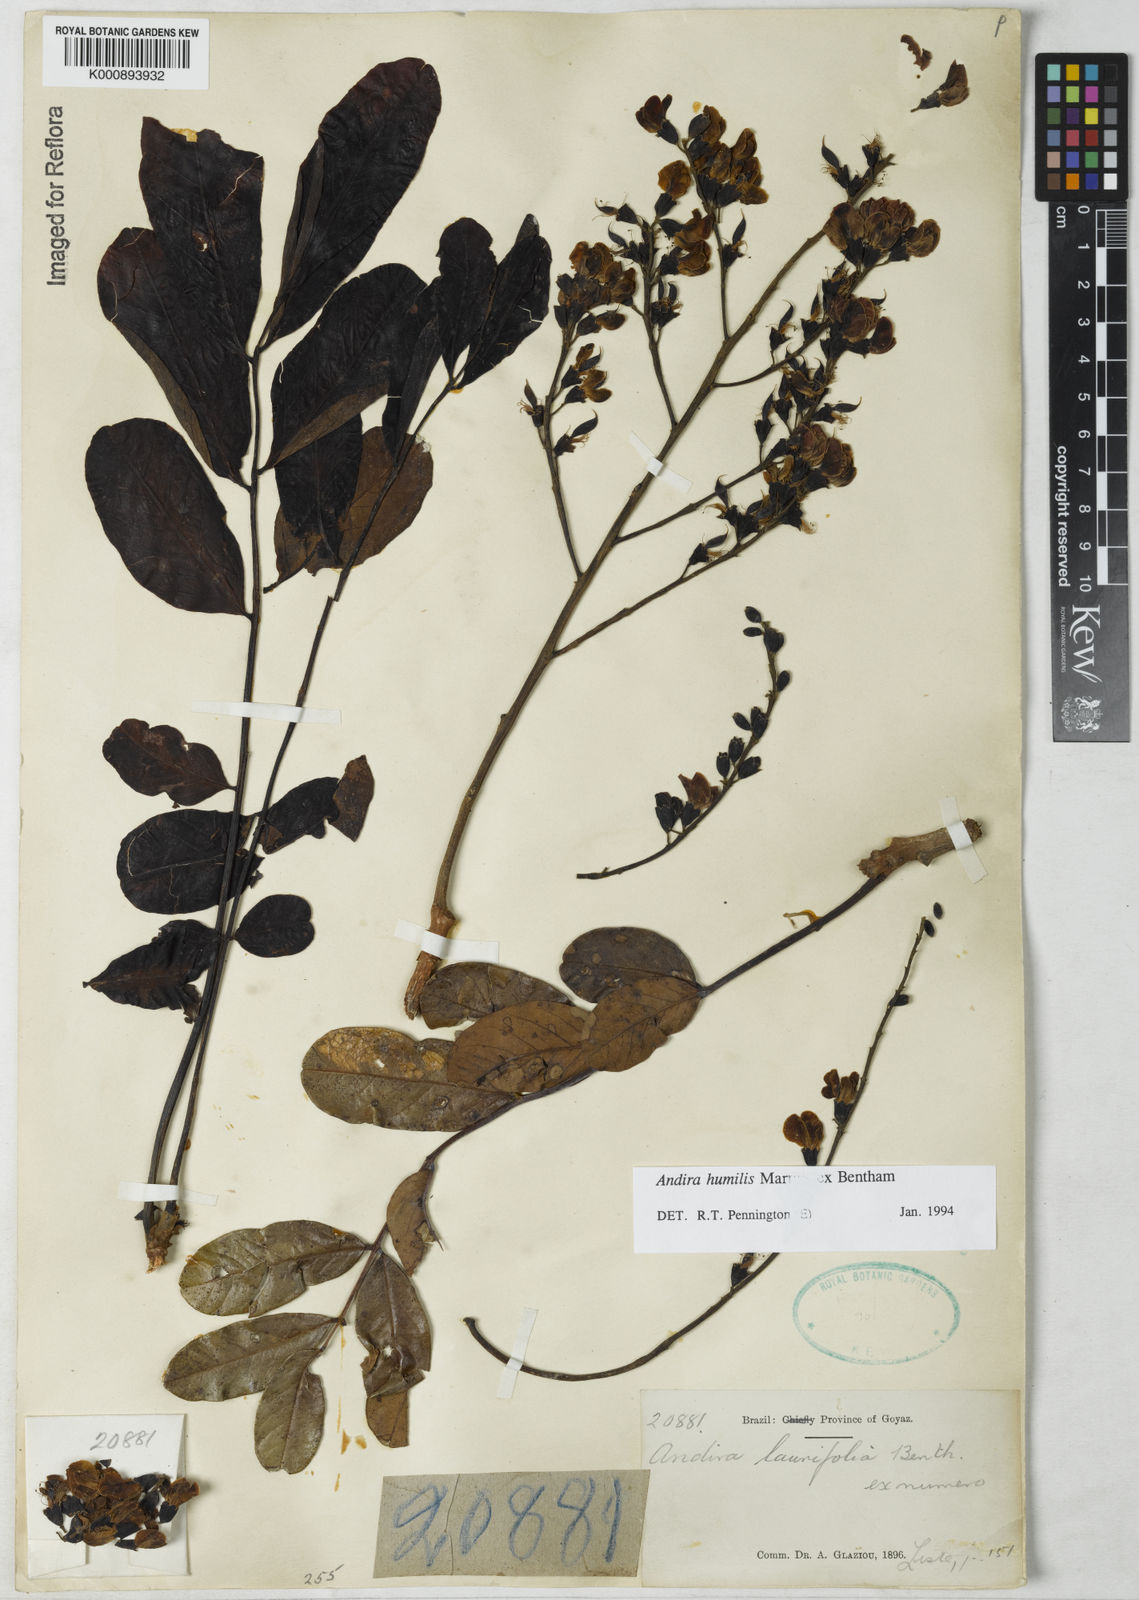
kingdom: Plantae
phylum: Tracheophyta
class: Magnoliopsida
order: Fabales
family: Fabaceae
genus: Andira
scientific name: Andira humilis
